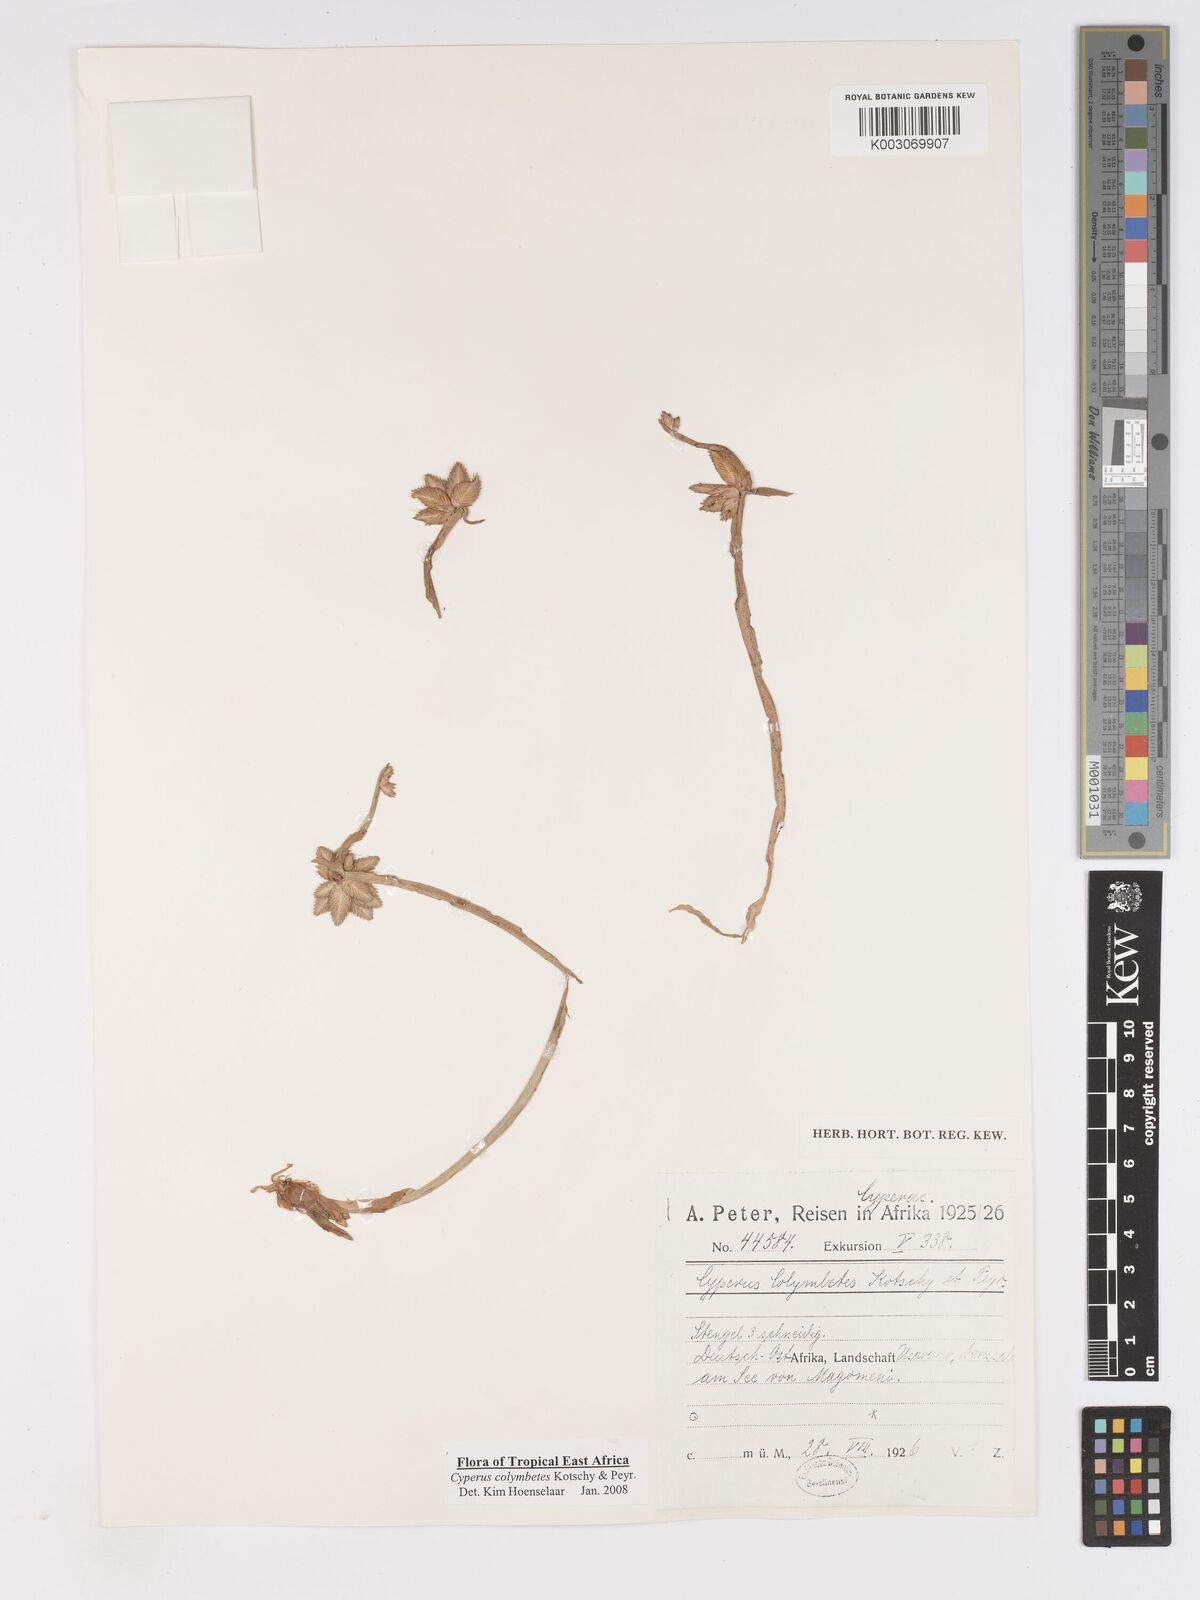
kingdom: Plantae
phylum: Tracheophyta
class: Liliopsida
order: Poales
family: Cyperaceae
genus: Cyperus
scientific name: Cyperus colymbetes
